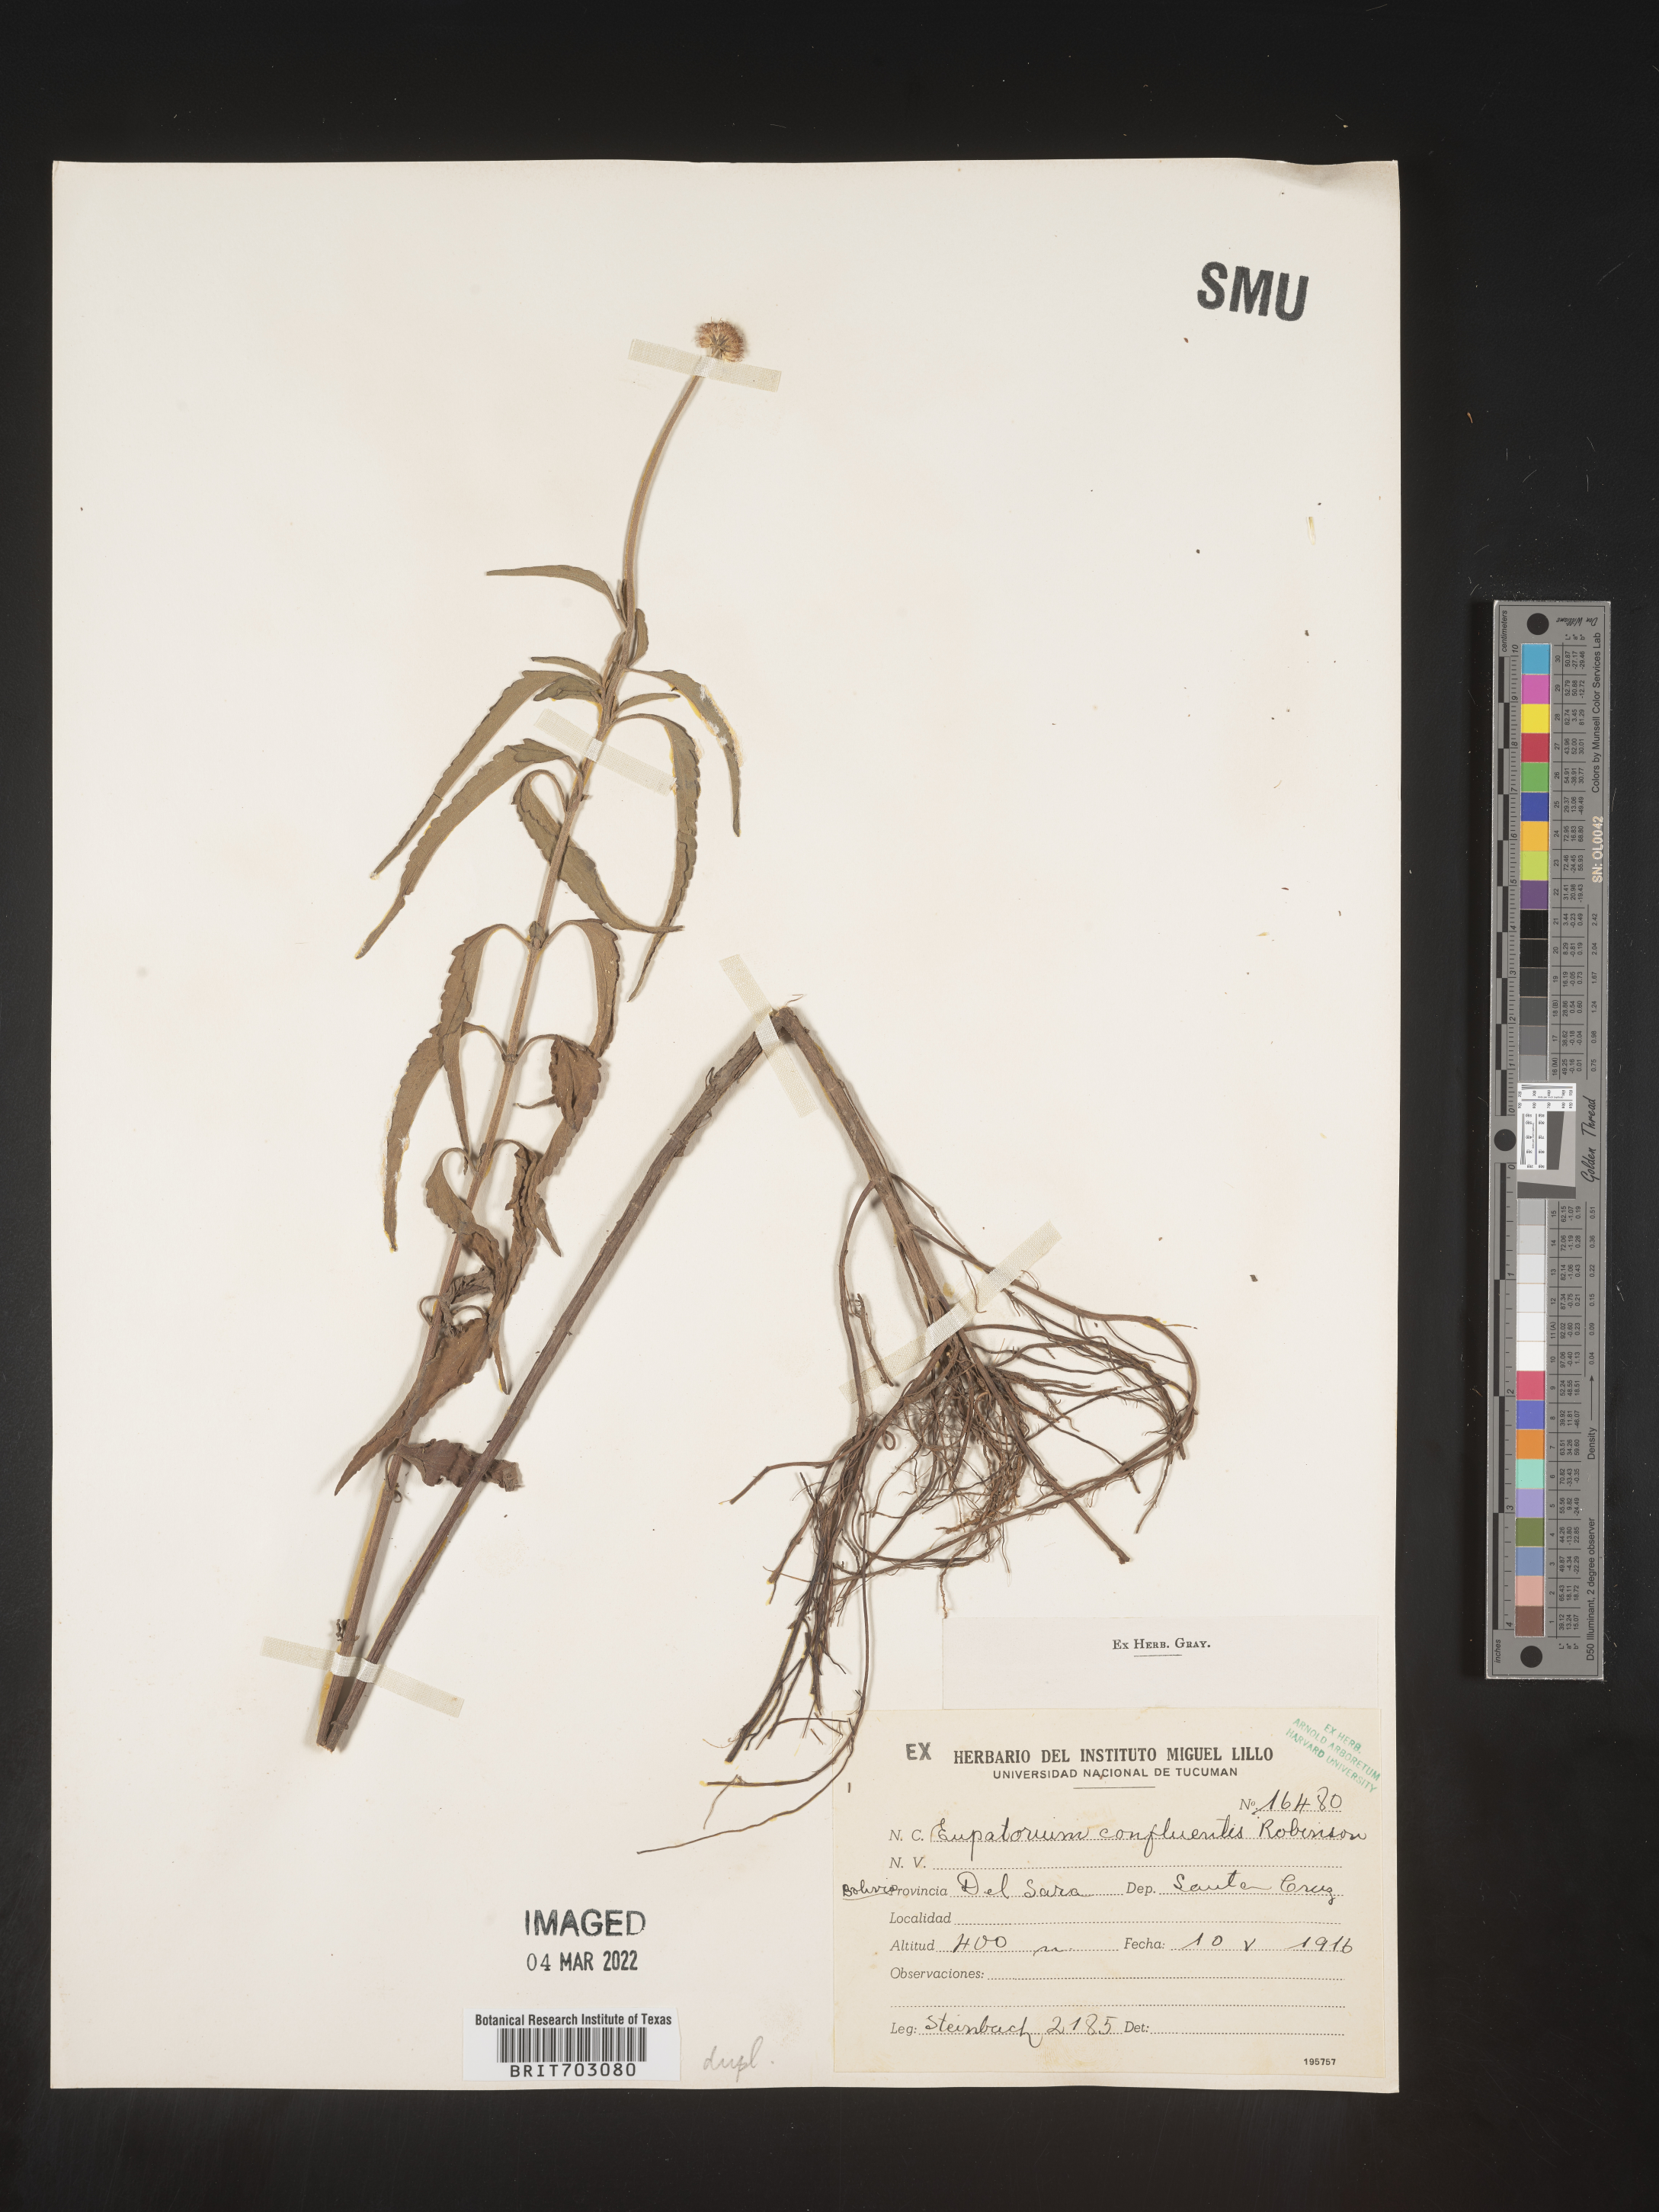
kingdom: Plantae
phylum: Tracheophyta
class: Magnoliopsida
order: Asterales
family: Asteraceae
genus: Eupatorium
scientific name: Eupatorium
